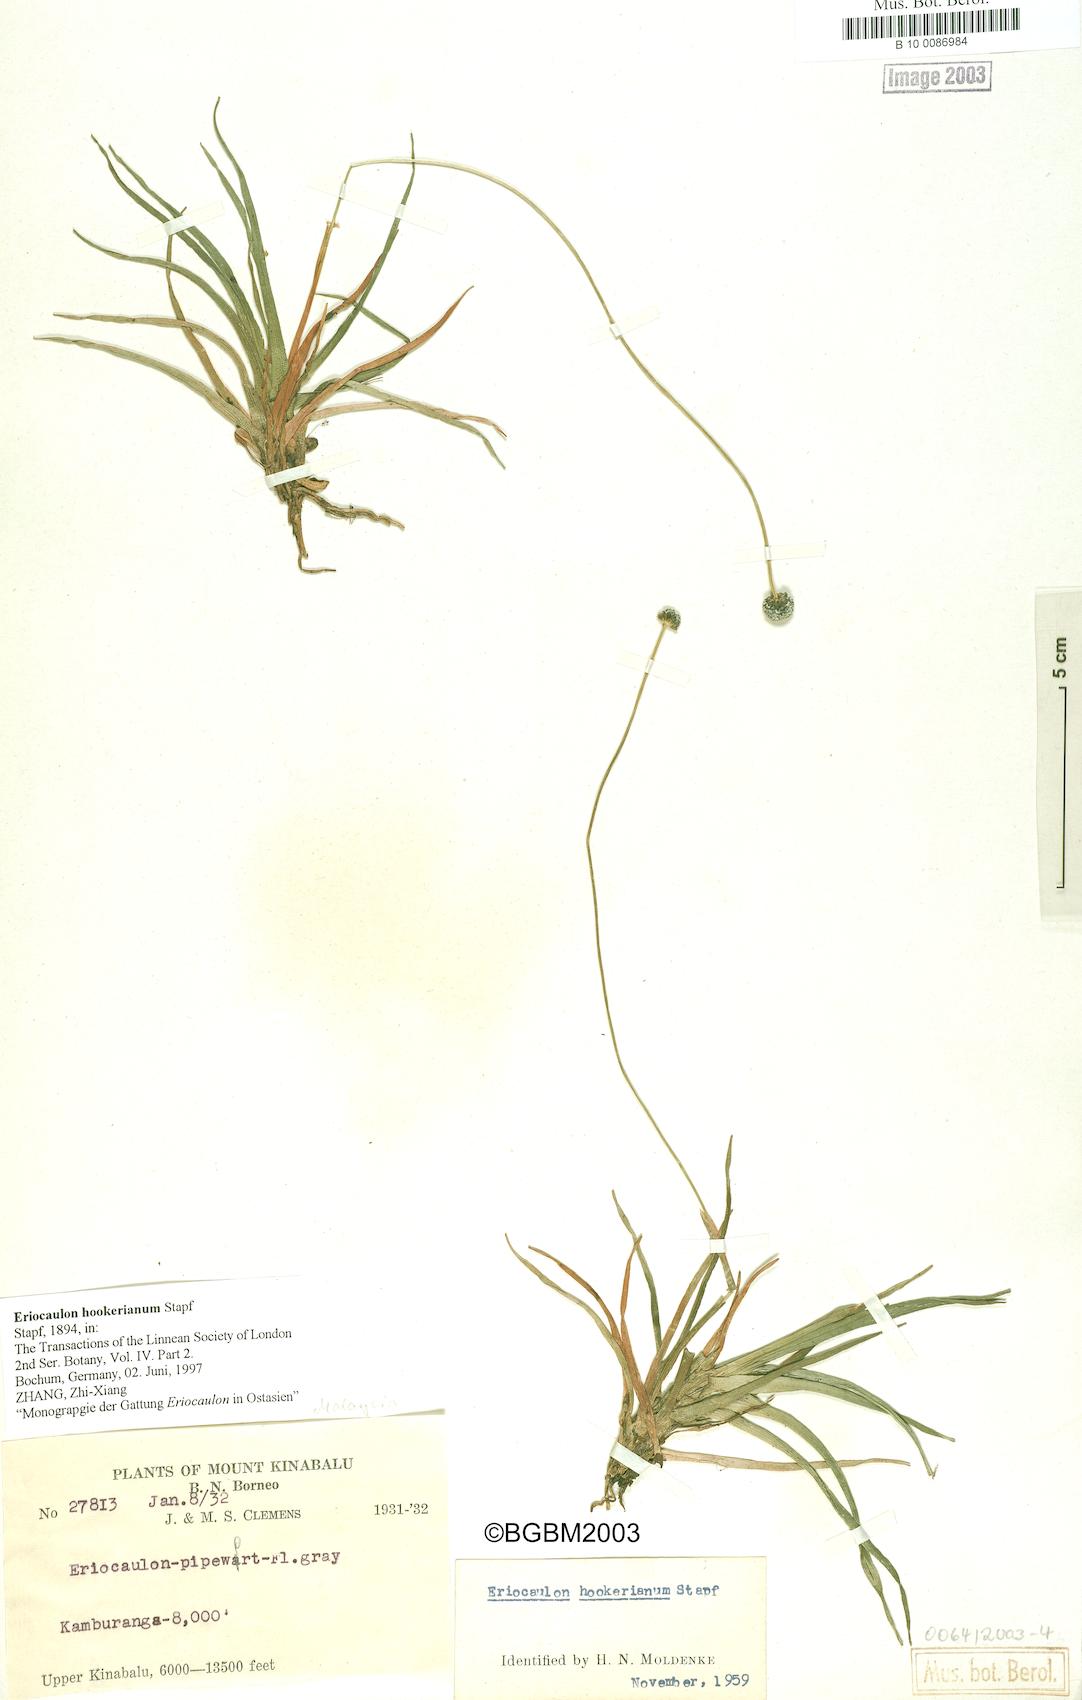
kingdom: Plantae
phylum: Tracheophyta
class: Liliopsida
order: Poales
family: Eriocaulaceae
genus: Eriocaulon
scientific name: Eriocaulon hookerianum
